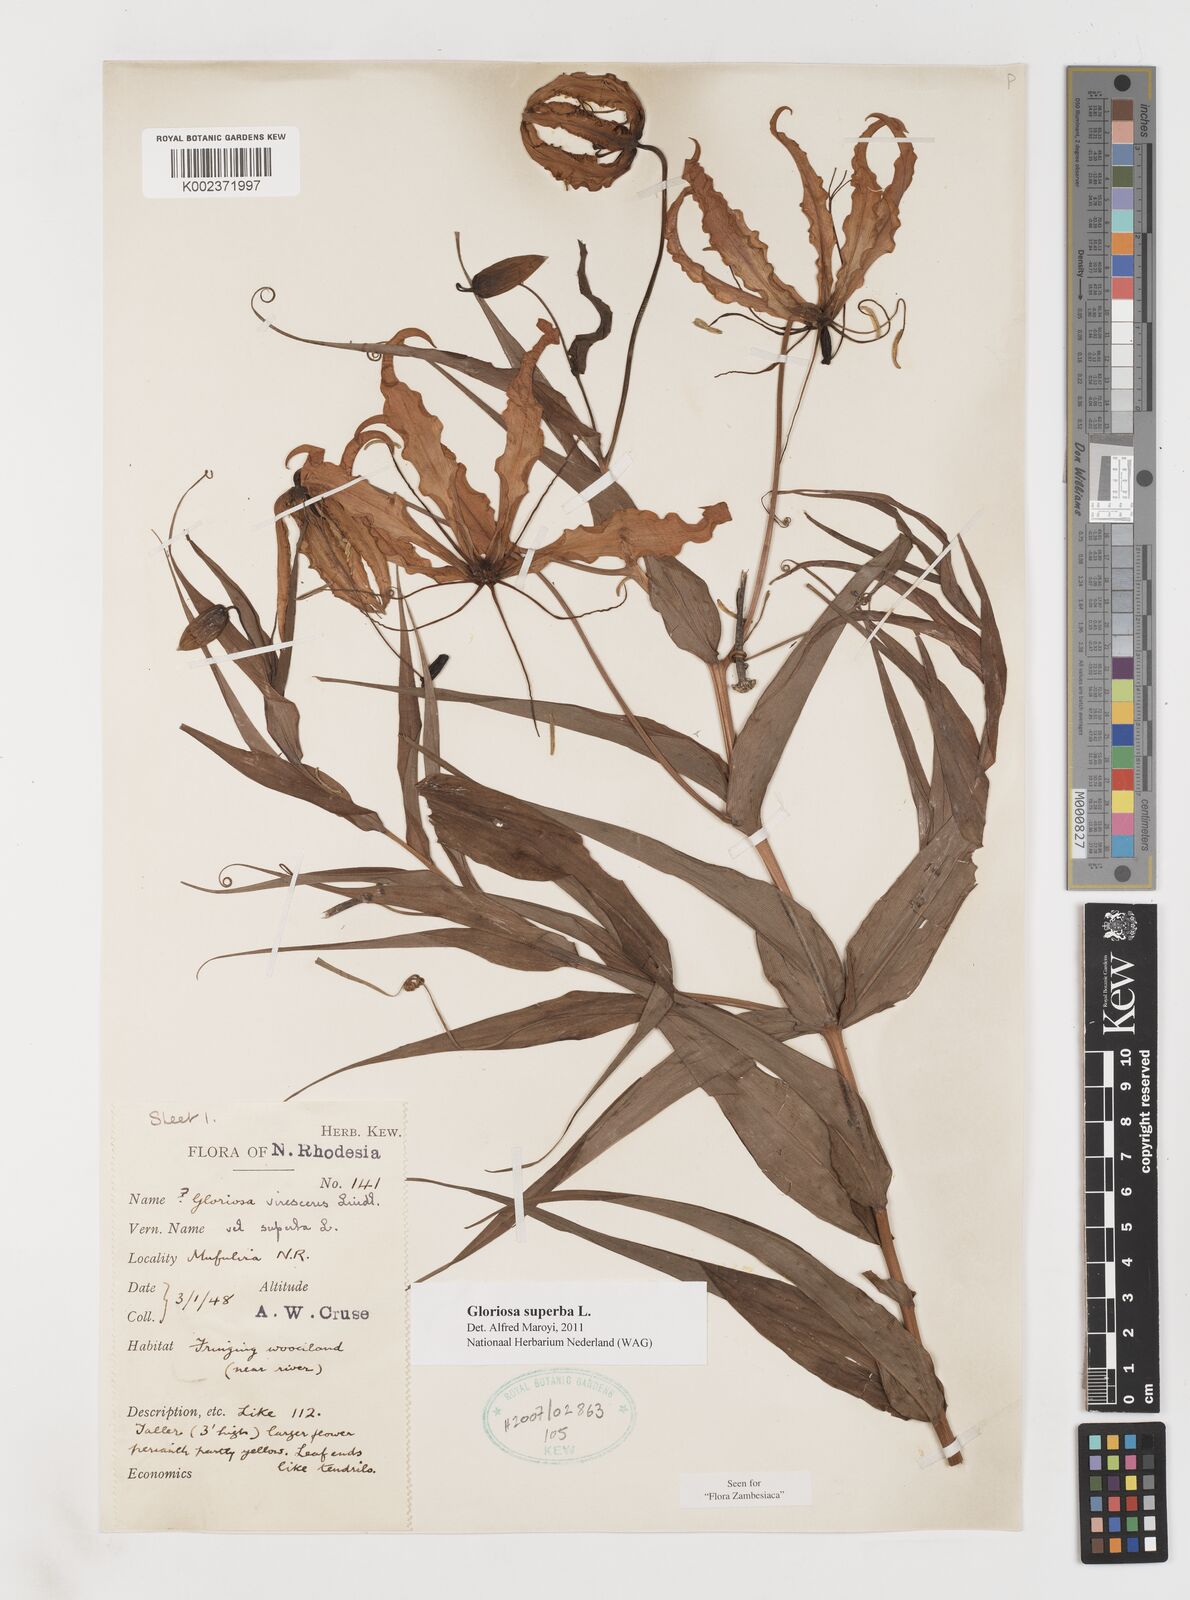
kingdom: Plantae
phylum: Tracheophyta
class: Liliopsida
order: Liliales
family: Colchicaceae
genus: Gloriosa
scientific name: Gloriosa superba
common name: Flame lily
